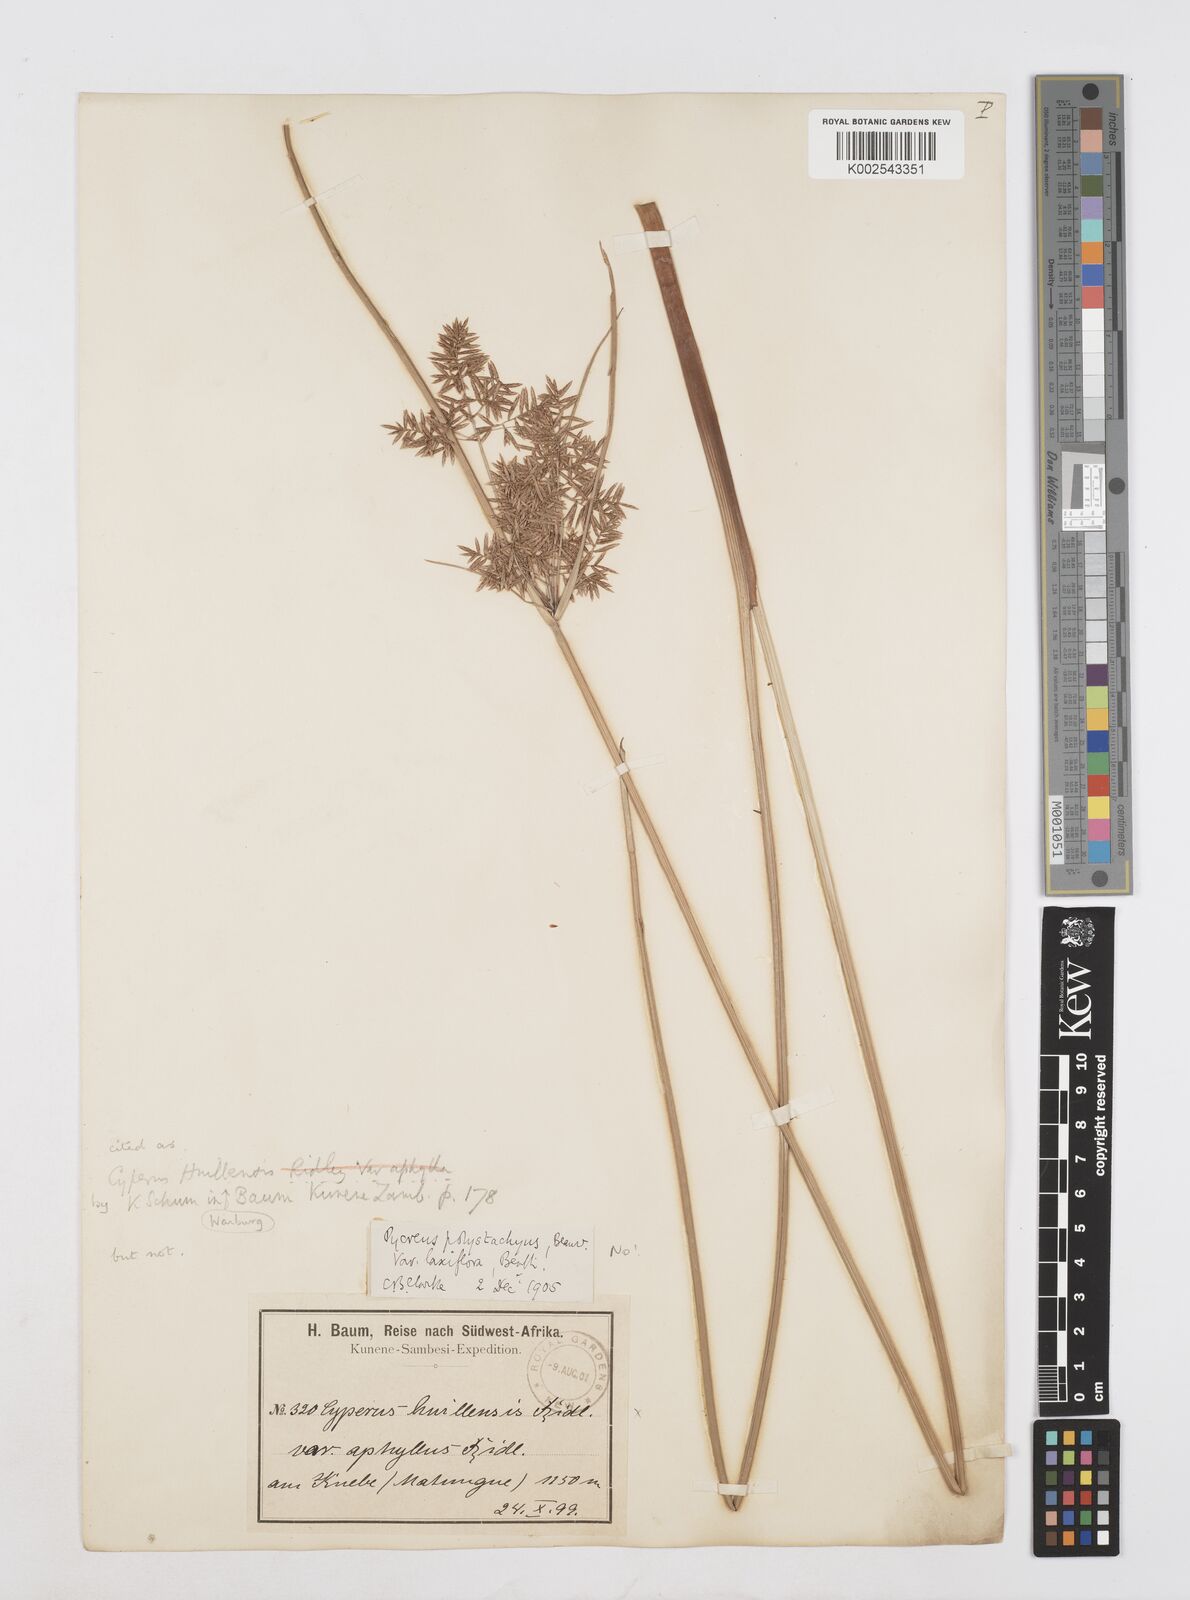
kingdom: Plantae
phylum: Tracheophyta
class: Liliopsida
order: Poales
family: Cyperaceae
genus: Cyperus
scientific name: Cyperus
